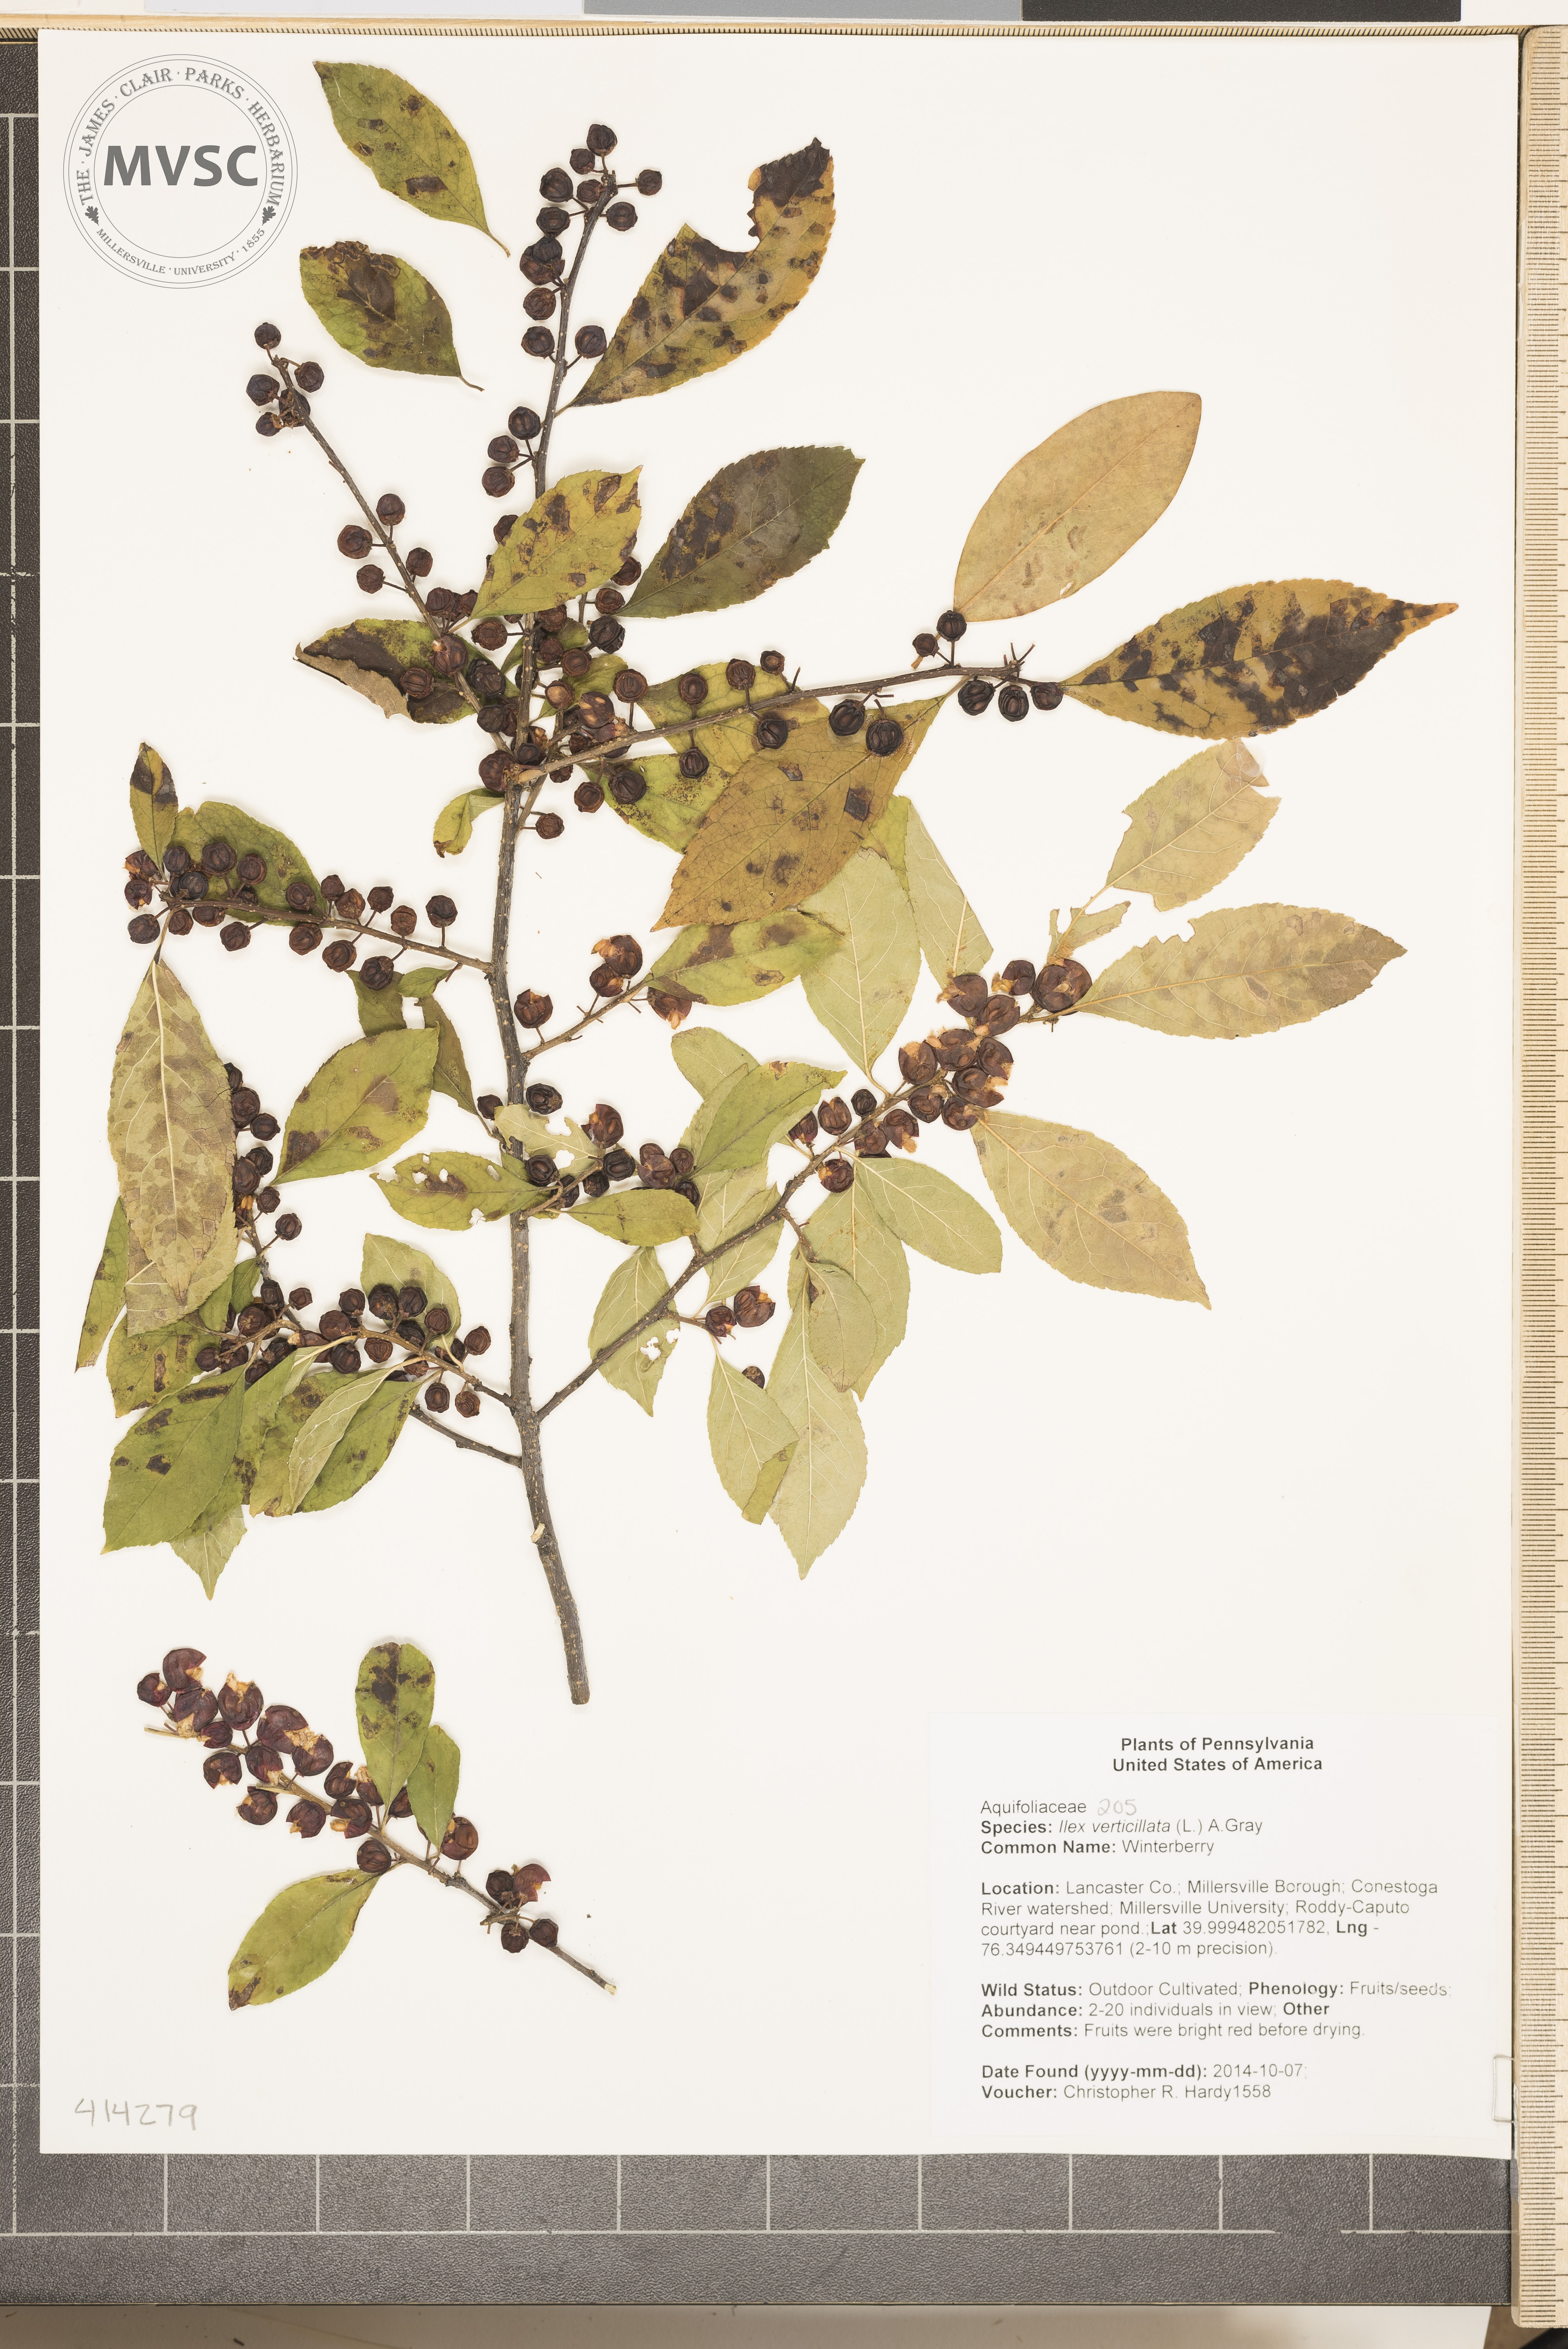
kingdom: Plantae
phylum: Tracheophyta
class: Magnoliopsida
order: Aquifoliales
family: Aquifoliaceae
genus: Ilex
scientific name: Ilex verticillata
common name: Winterberry
